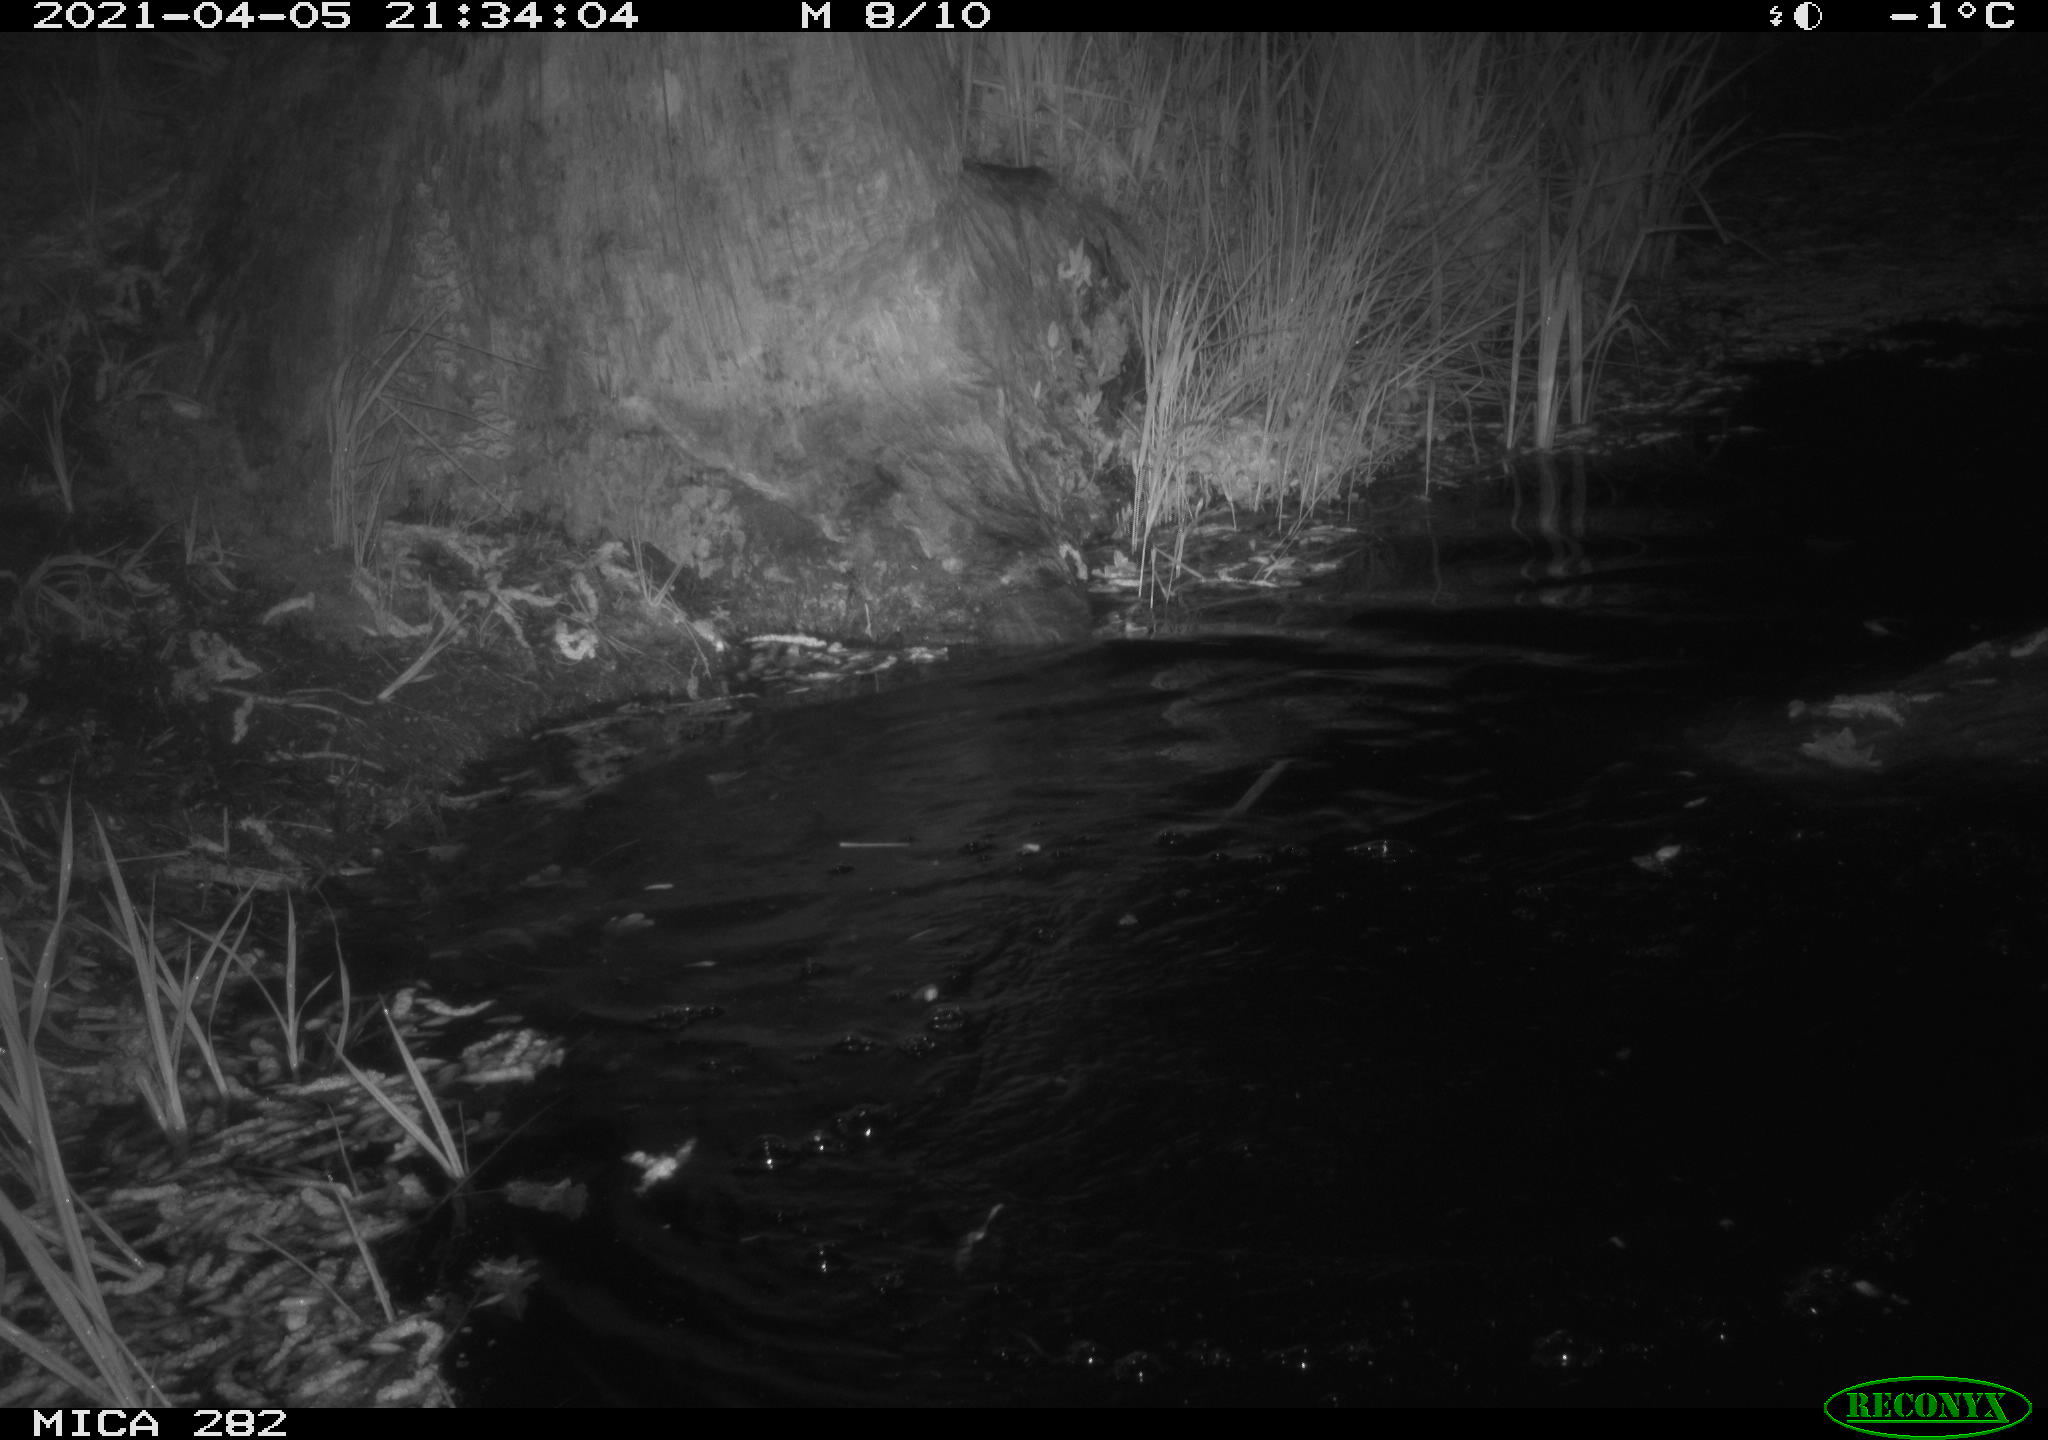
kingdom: Animalia
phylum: Chordata
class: Mammalia
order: Rodentia
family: Castoridae
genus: Castor
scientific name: Castor fiber
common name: Eurasian beaver
